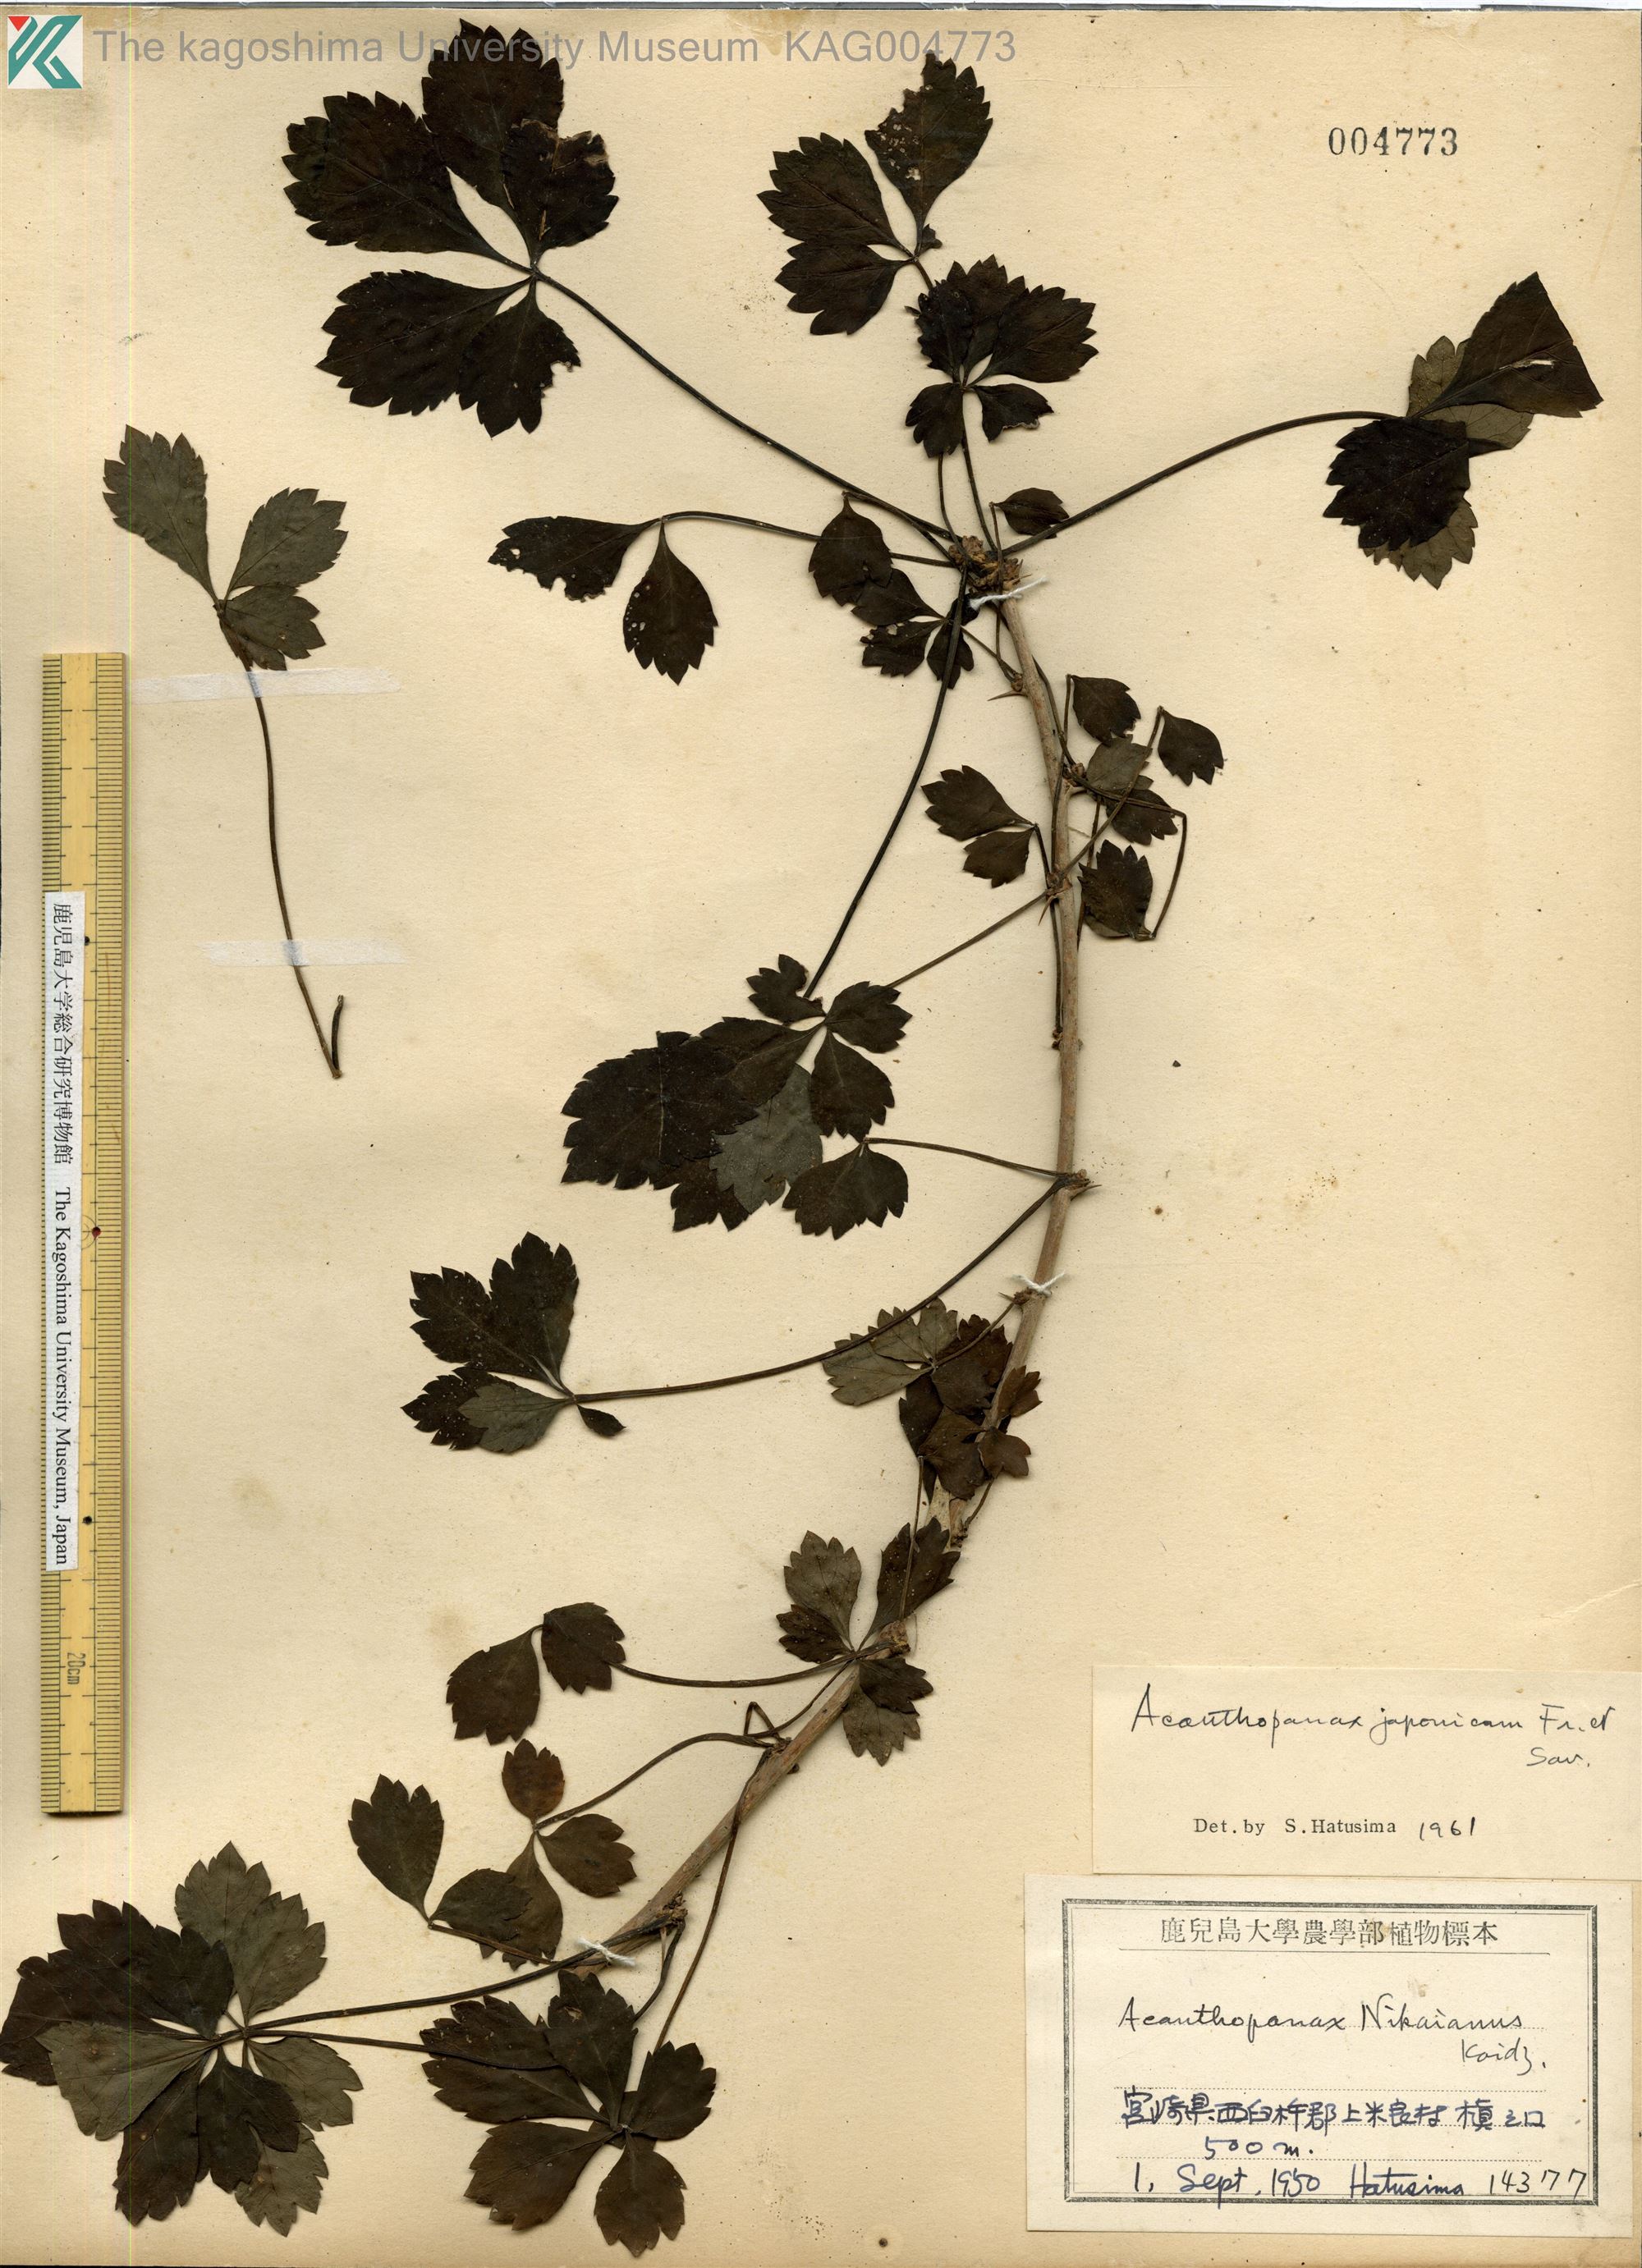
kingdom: Plantae
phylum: Tracheophyta
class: Magnoliopsida
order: Apiales
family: Araliaceae
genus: Eleutherococcus
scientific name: Eleutherococcus japonicus
